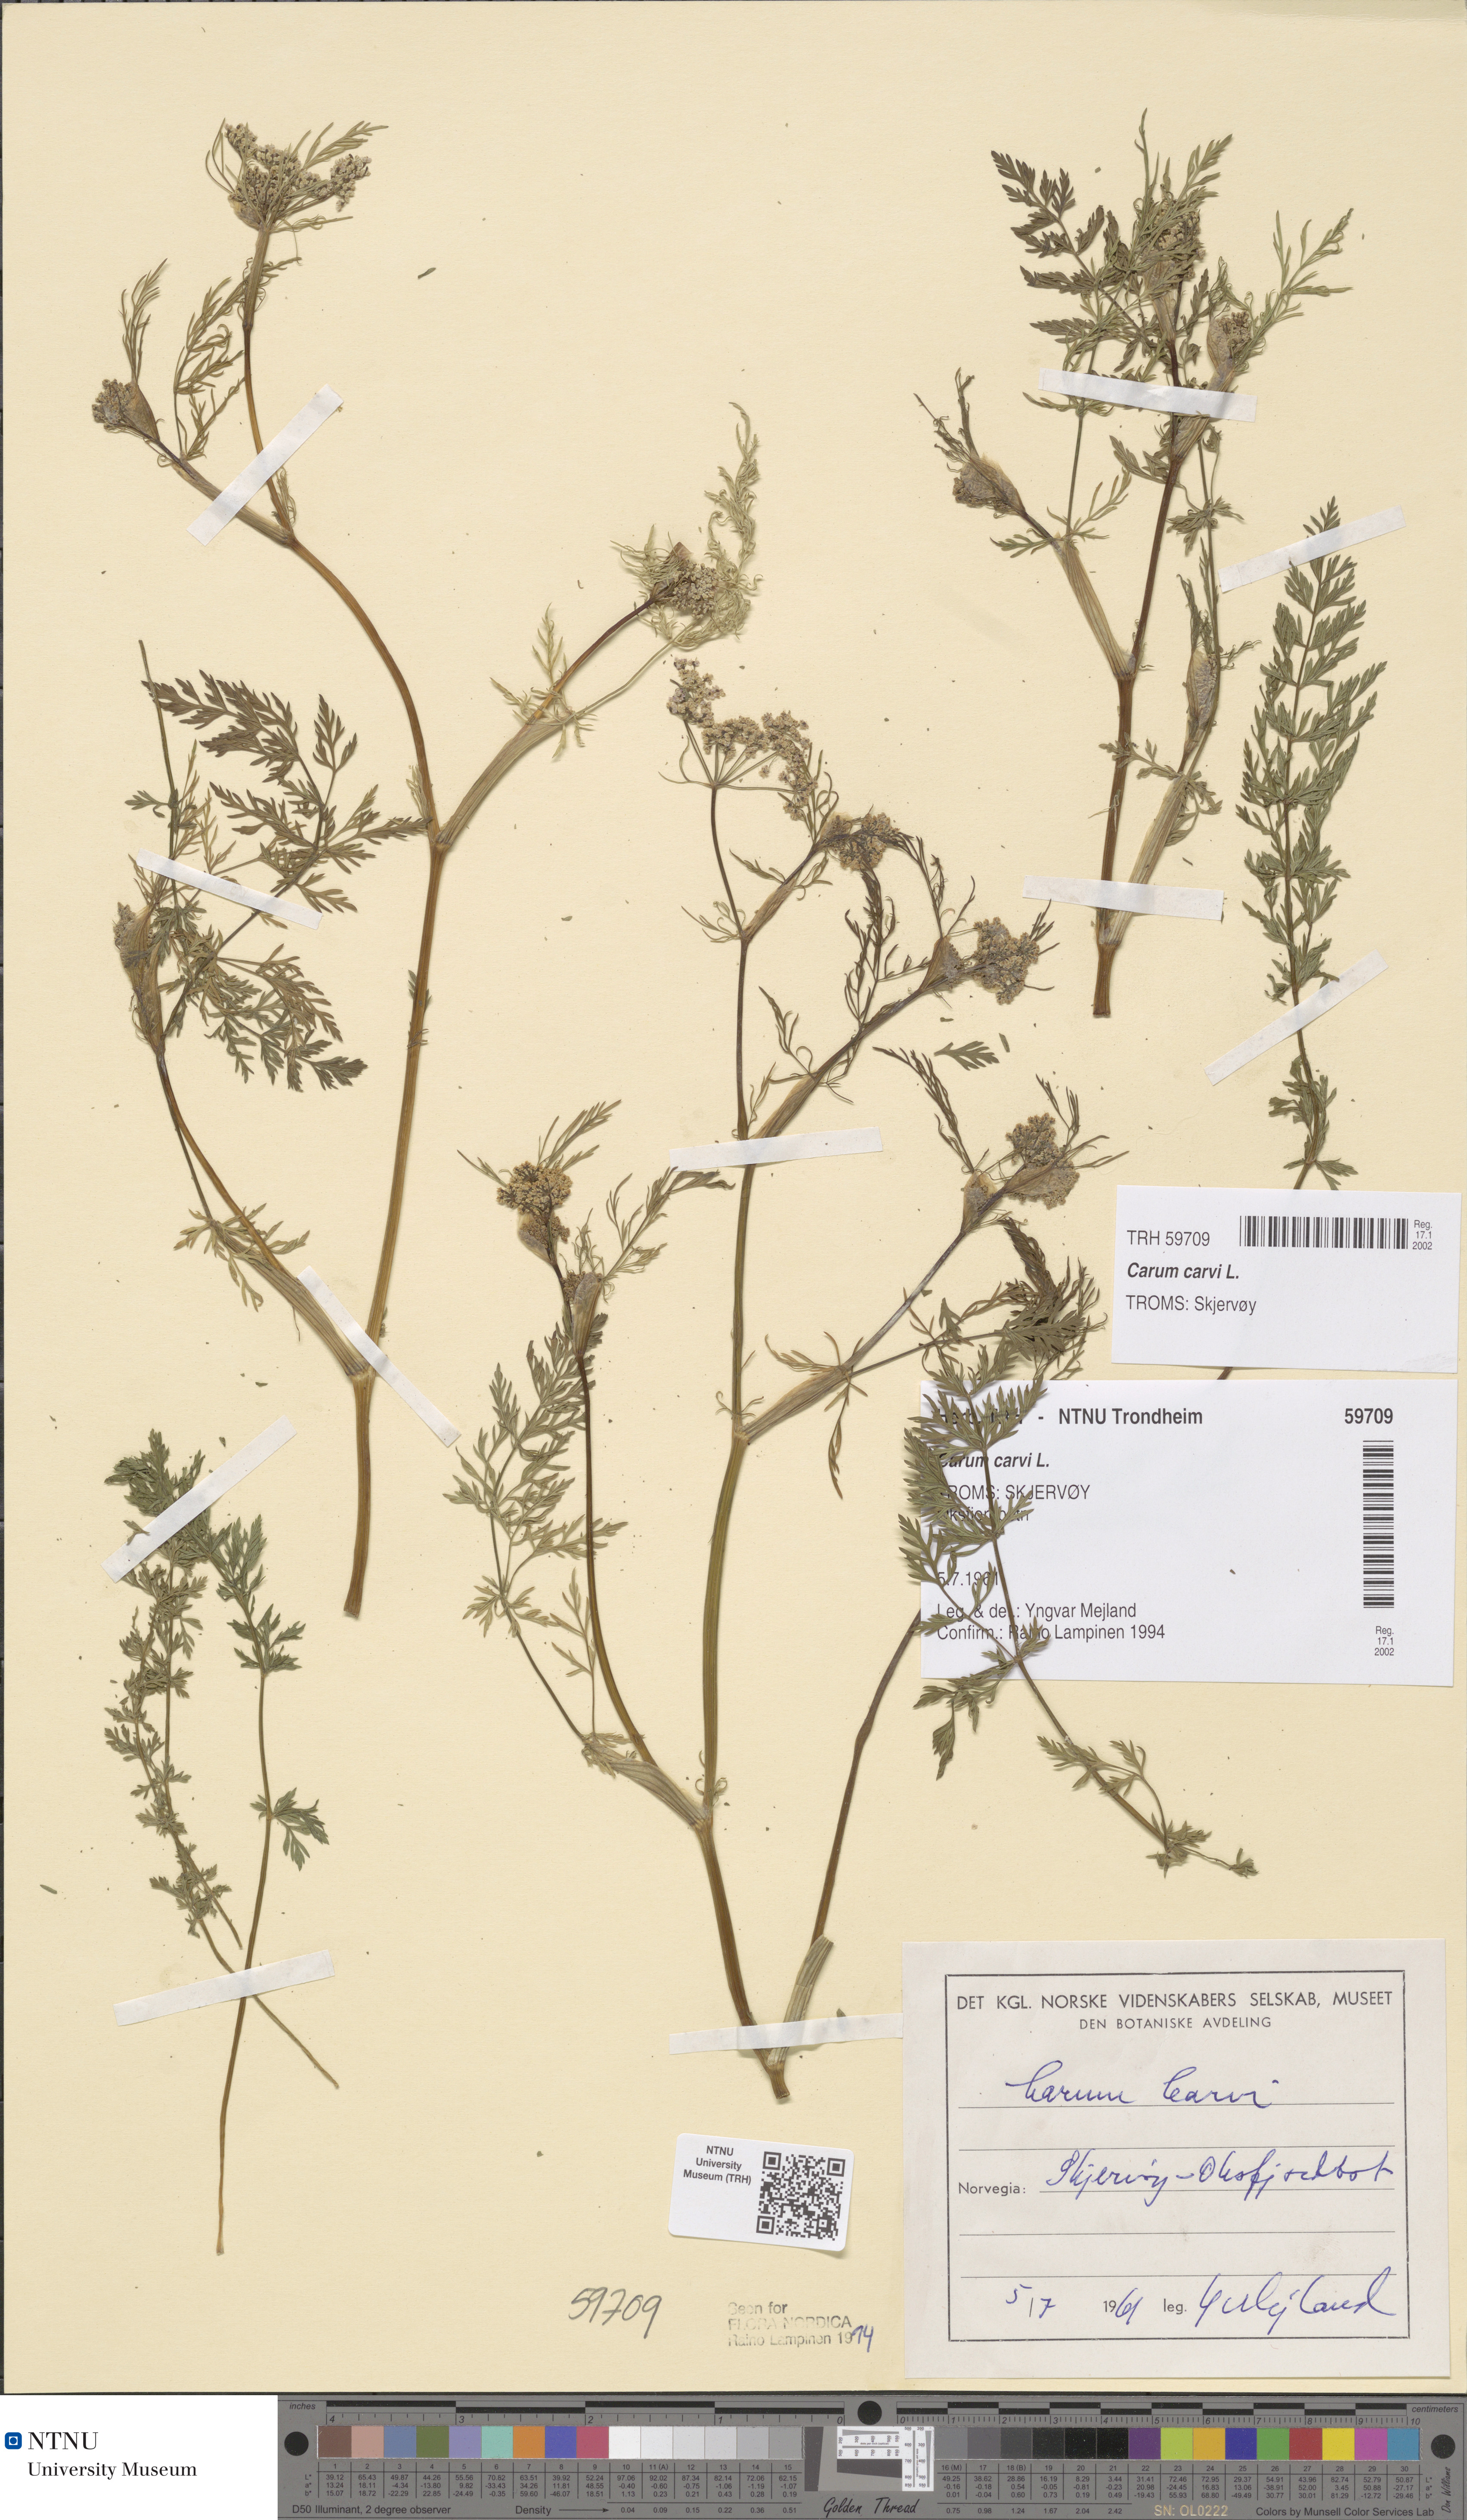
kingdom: Plantae
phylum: Tracheophyta
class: Magnoliopsida
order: Apiales
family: Apiaceae
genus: Carum
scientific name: Carum carvi
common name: Caraway
